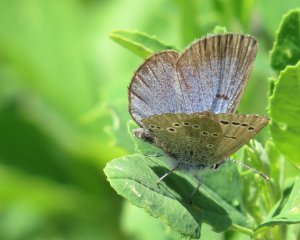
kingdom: Animalia
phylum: Arthropoda
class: Insecta
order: Lepidoptera
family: Lycaenidae
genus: Glaucopsyche
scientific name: Glaucopsyche lygdamus
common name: Silvery Blue
